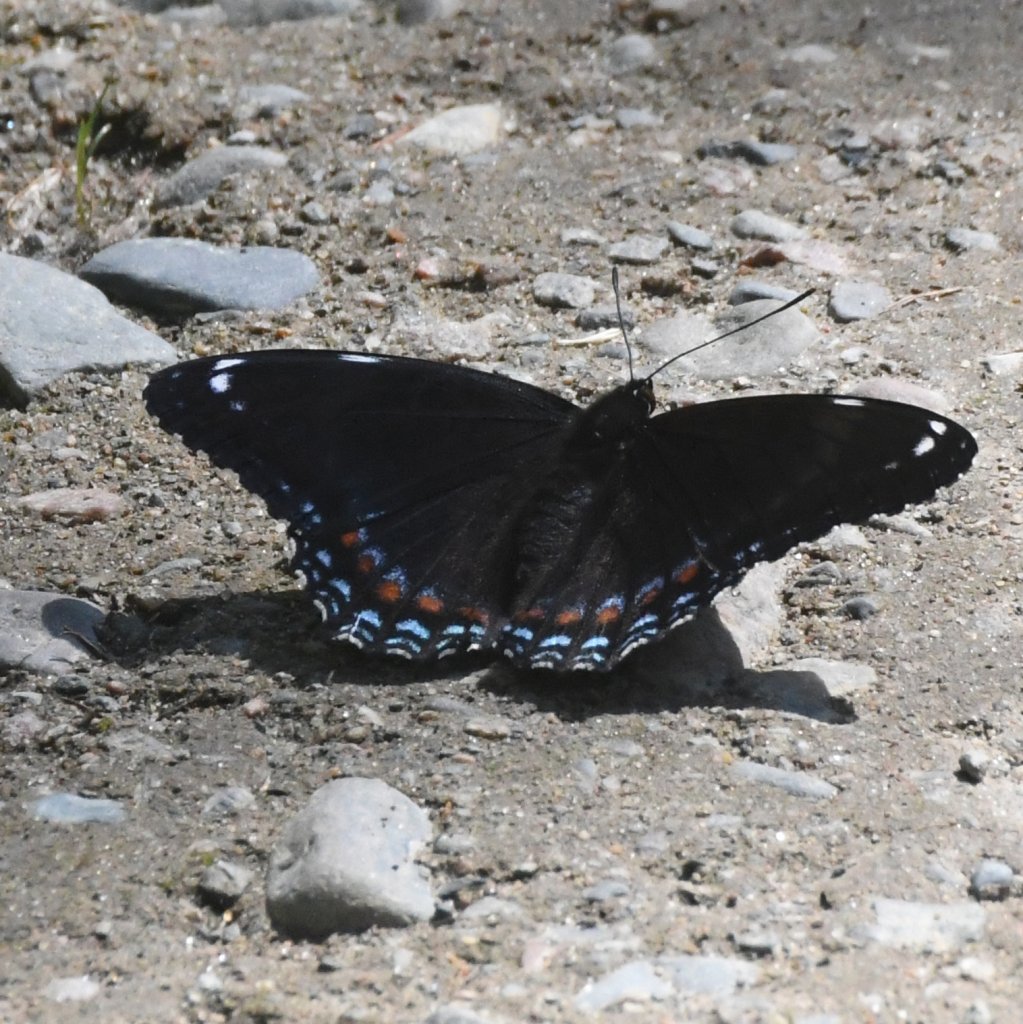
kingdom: Animalia
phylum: Arthropoda
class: Insecta
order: Lepidoptera
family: Nymphalidae
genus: Limenitis
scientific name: Limenitis astyanax
